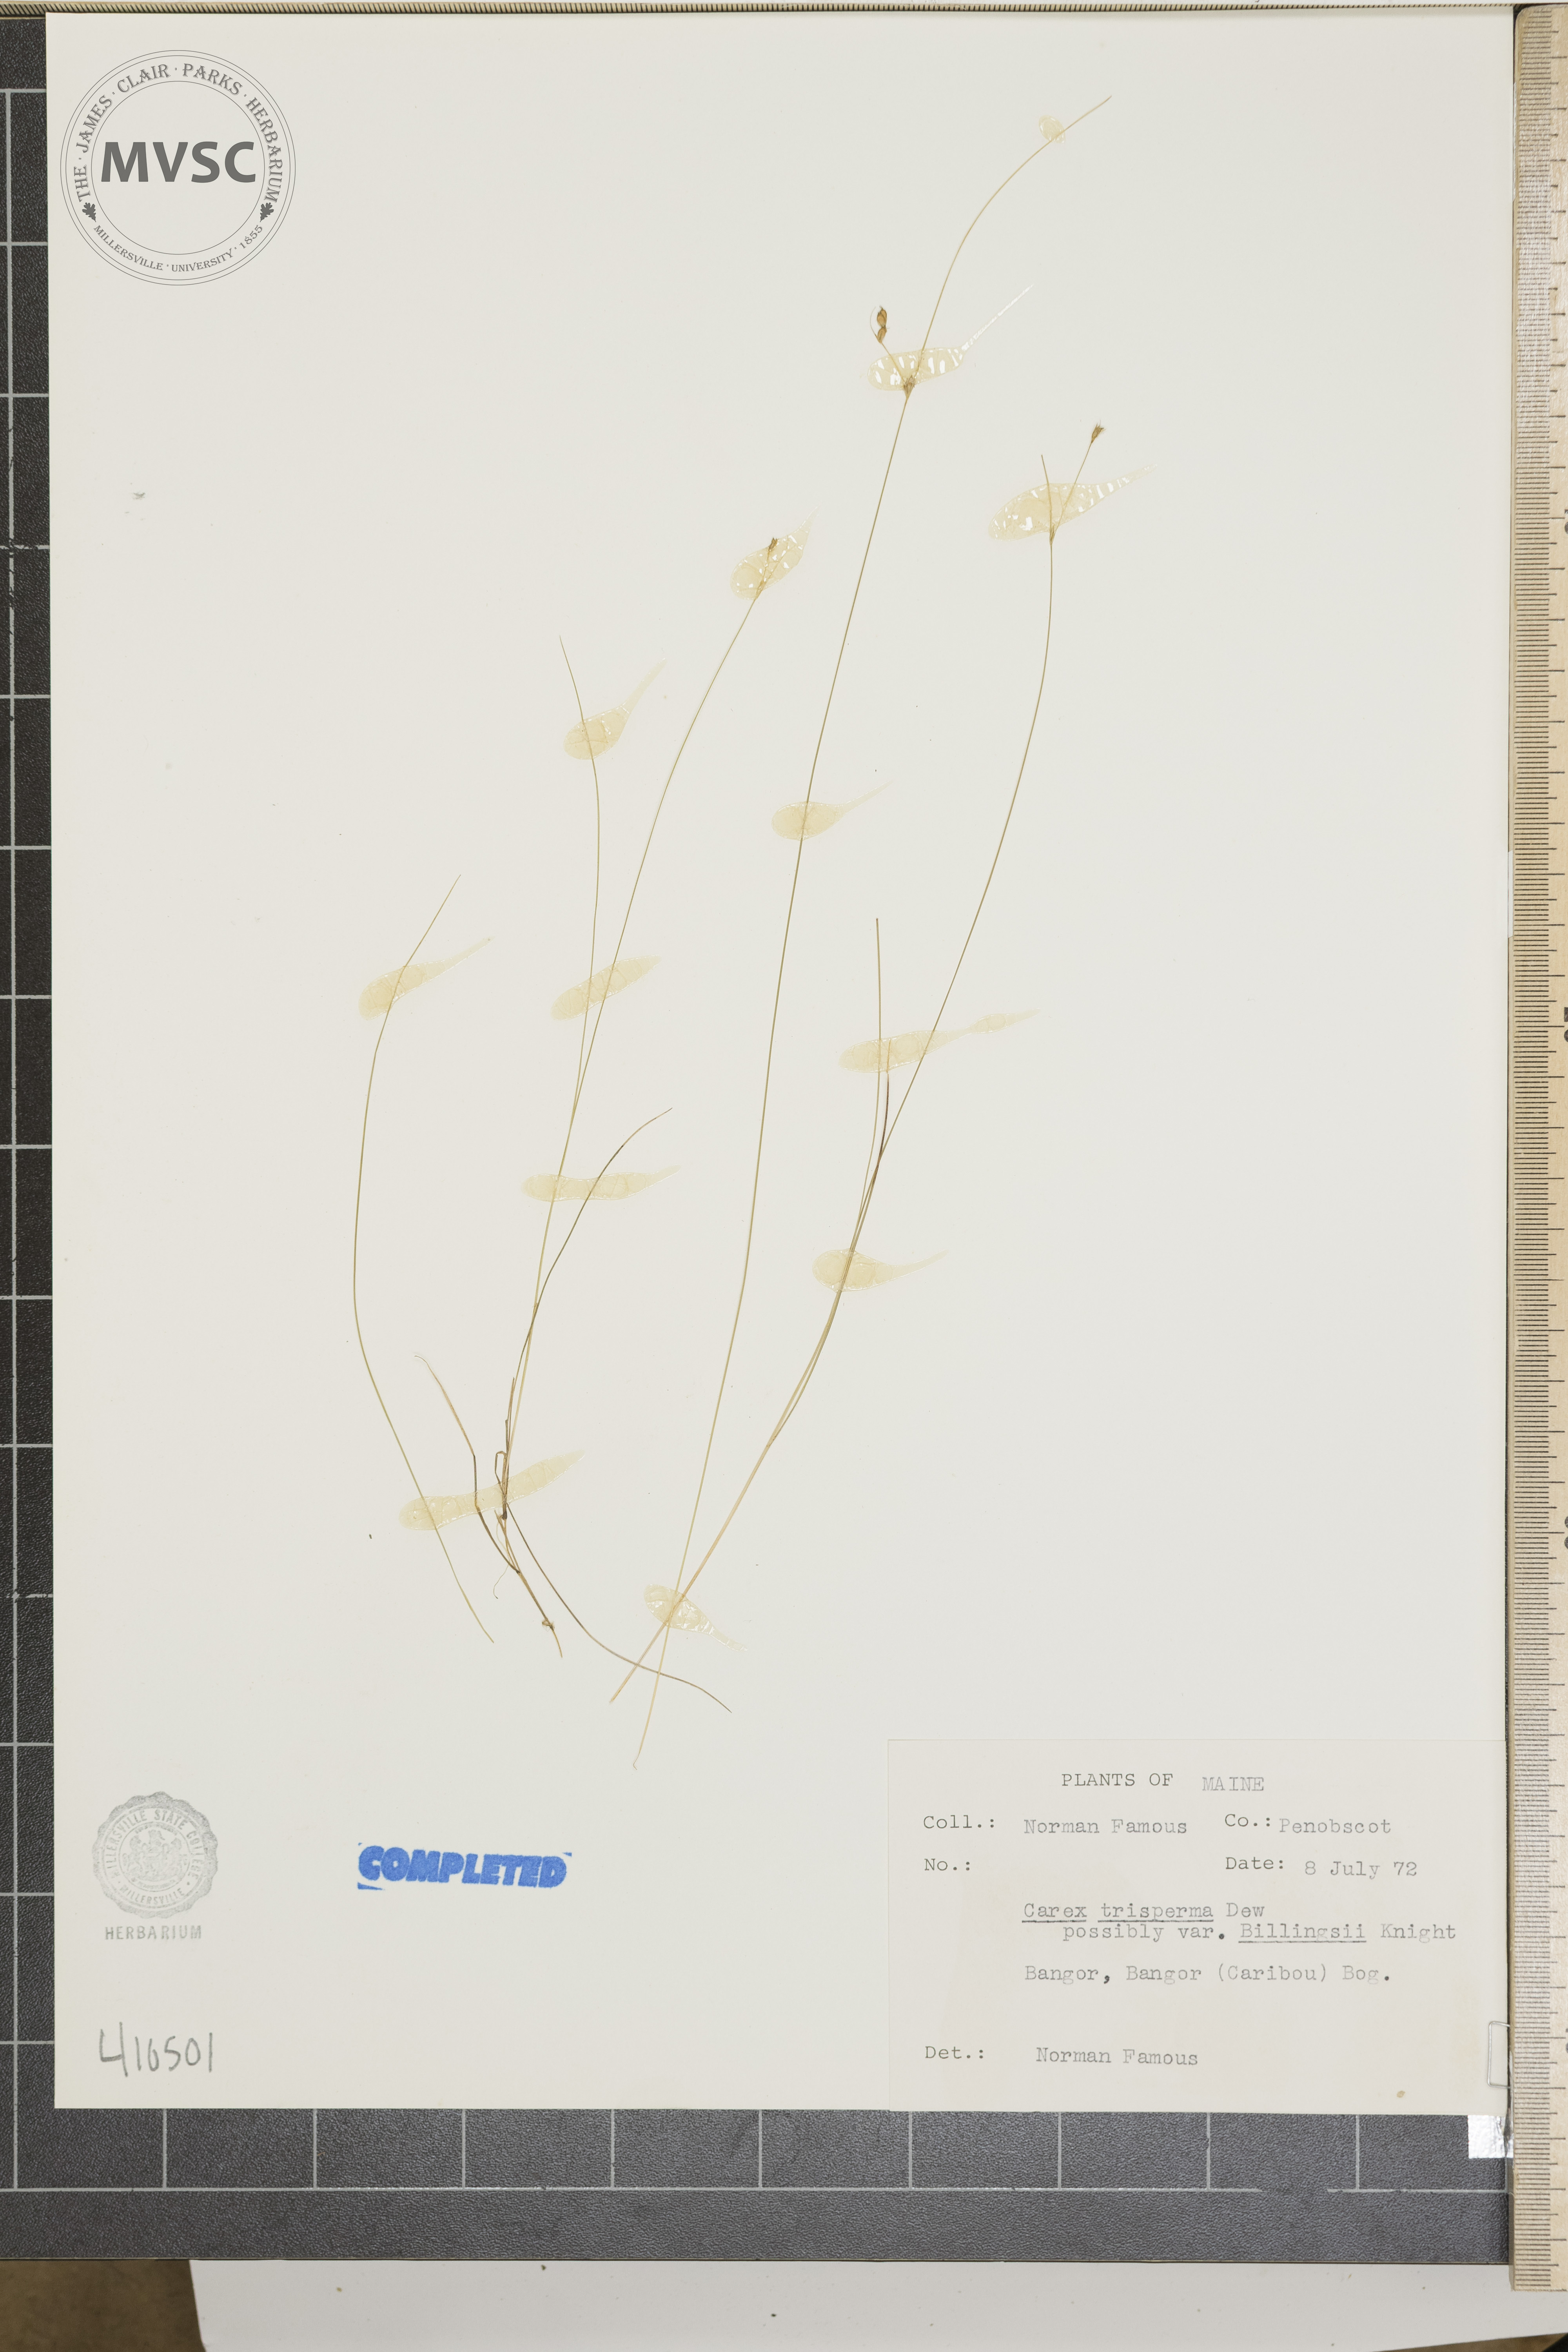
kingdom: Plantae
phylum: Tracheophyta
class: Liliopsida
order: Poales
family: Cyperaceae
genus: Carex
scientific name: Carex trisperma
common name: Three-seeded sedge
